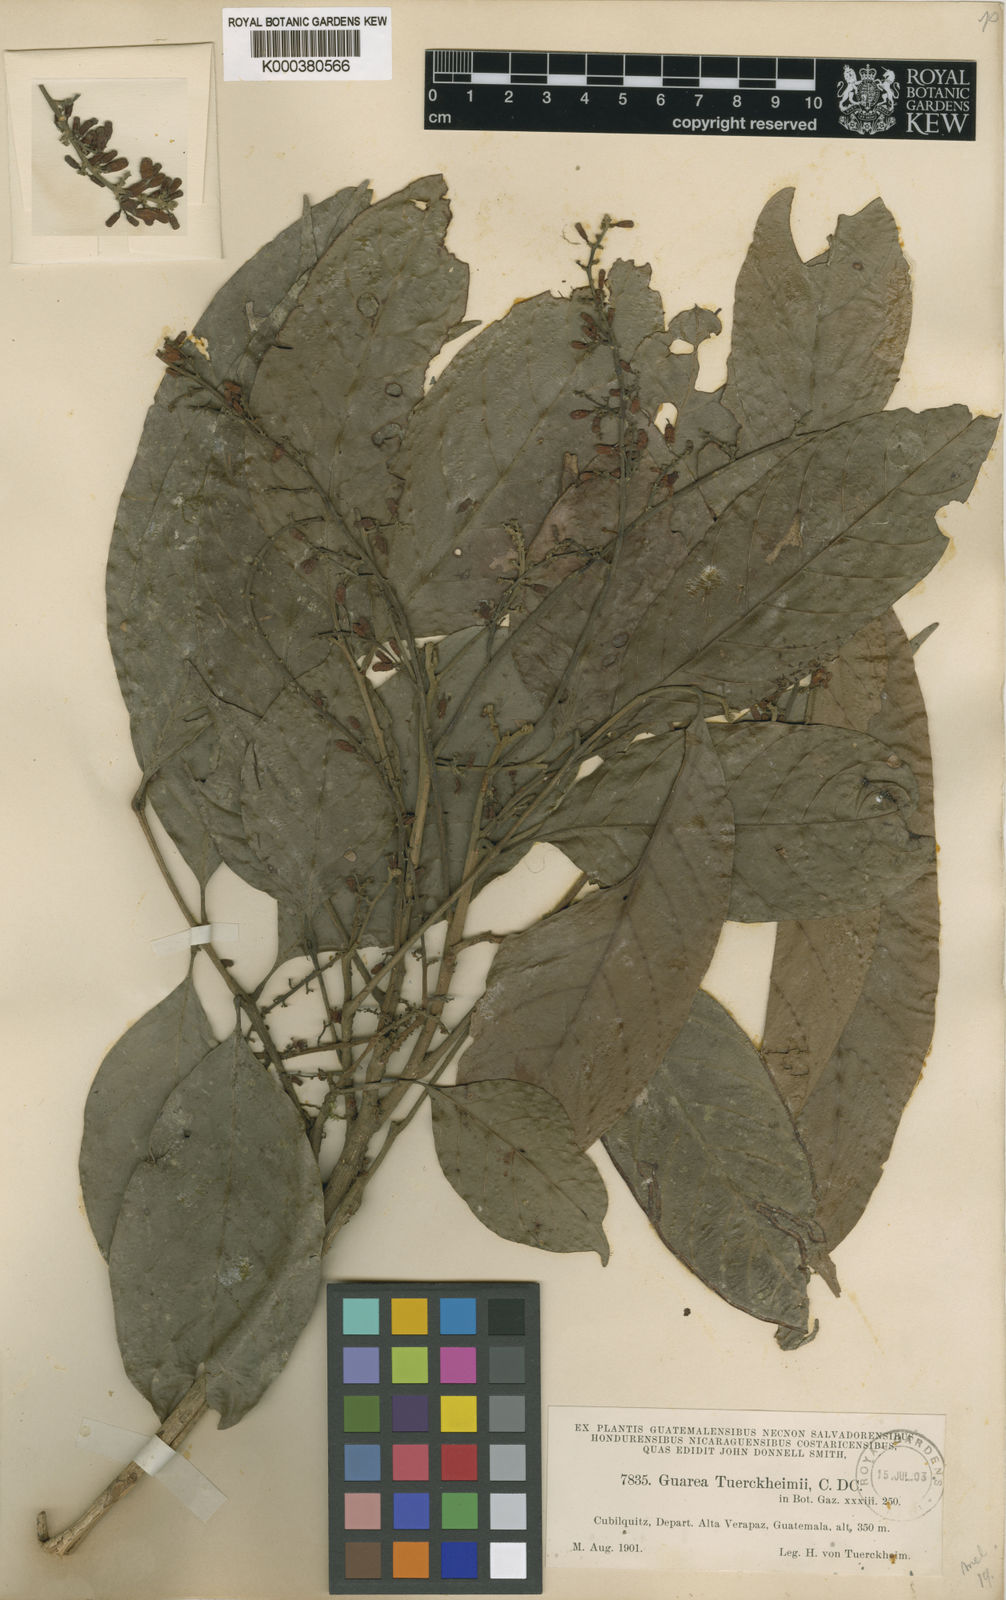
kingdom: Plantae
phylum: Tracheophyta
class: Magnoliopsida
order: Sapindales
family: Meliaceae
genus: Guarea
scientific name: Guarea glabra
